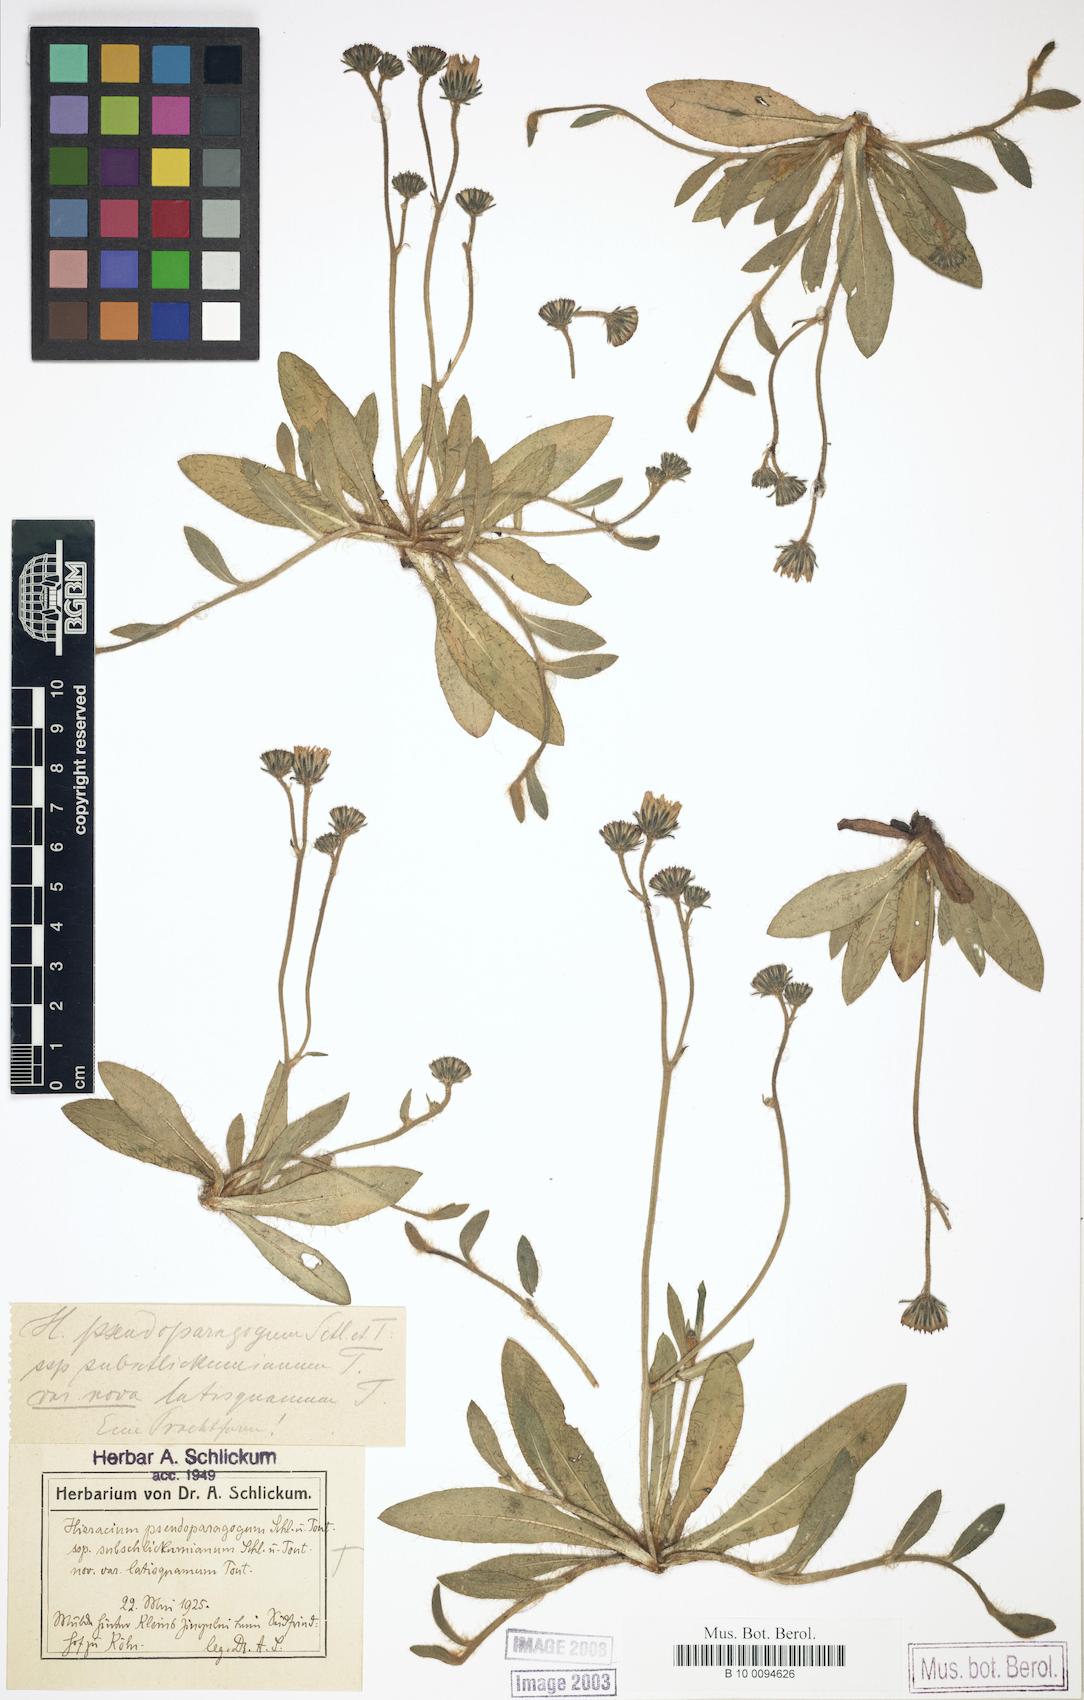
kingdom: Plantae
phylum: Tracheophyta
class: Magnoliopsida
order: Asterales
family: Asteraceae
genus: Pilosella
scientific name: Pilosella pseudoparagoga
